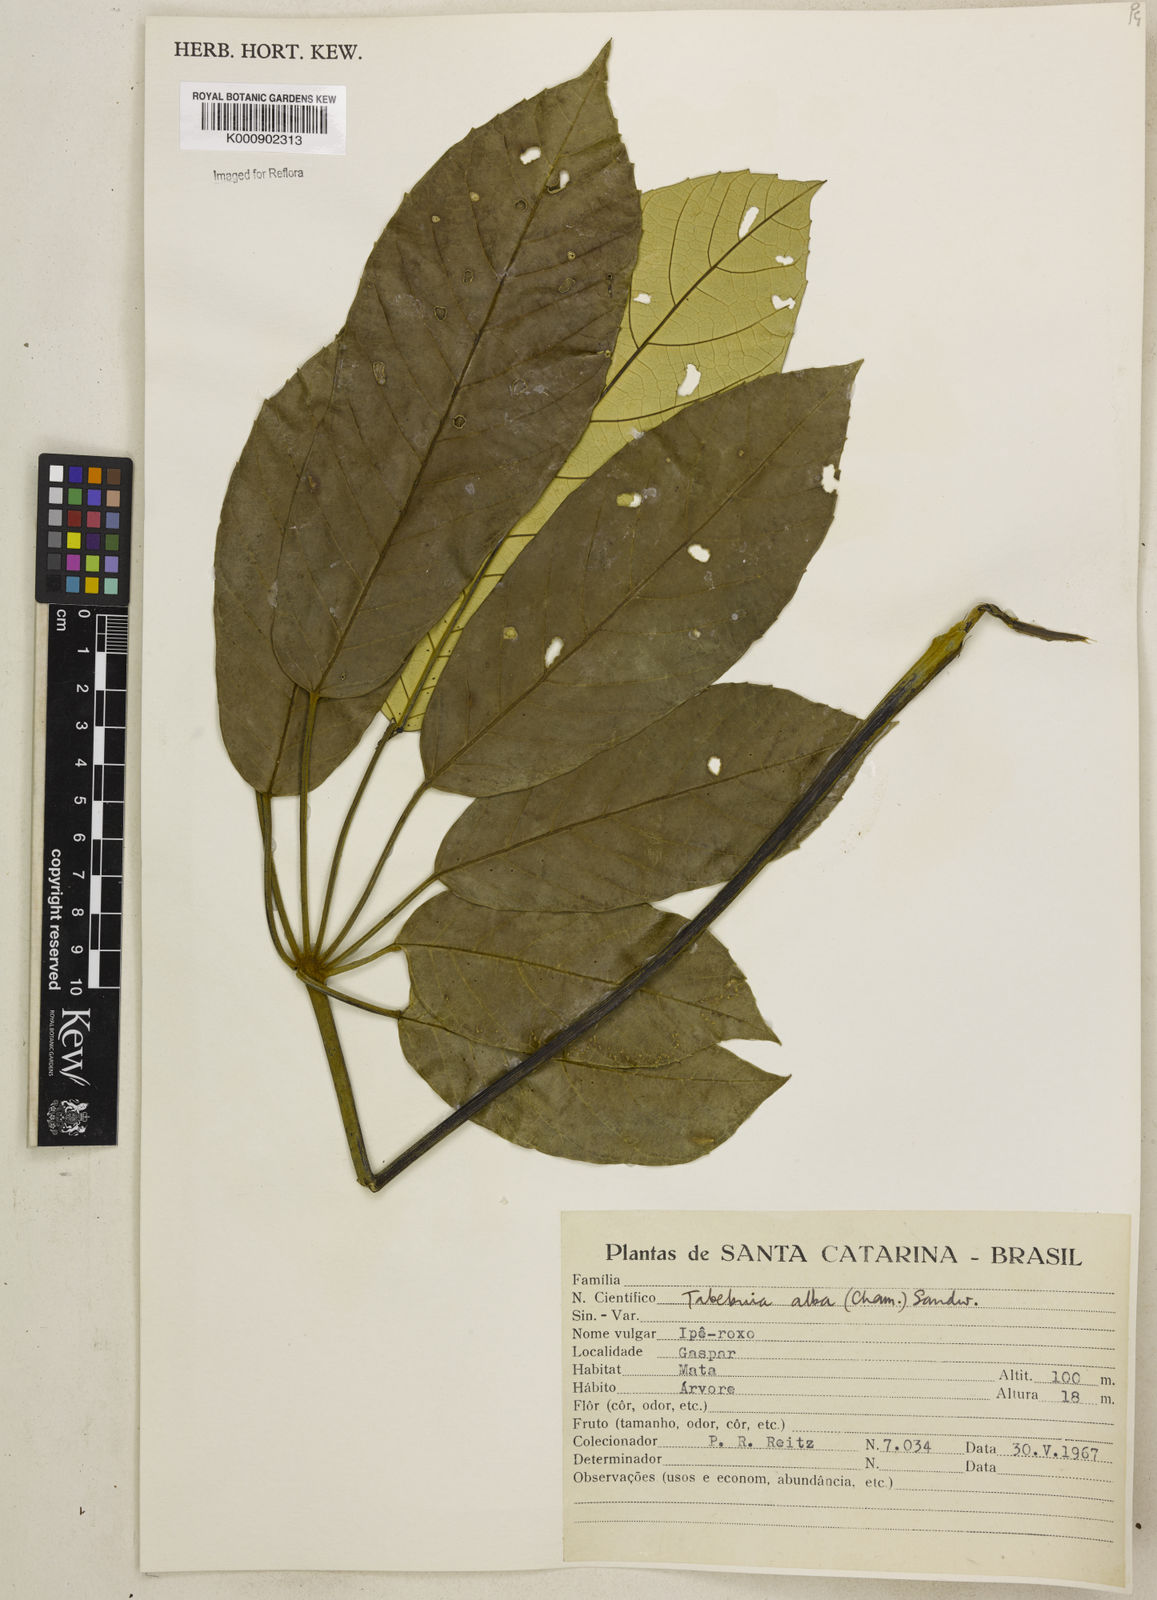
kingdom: Plantae
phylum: Tracheophyta
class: Magnoliopsida
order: Lamiales
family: Bignoniaceae
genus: Handroanthus
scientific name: Handroanthus albus
